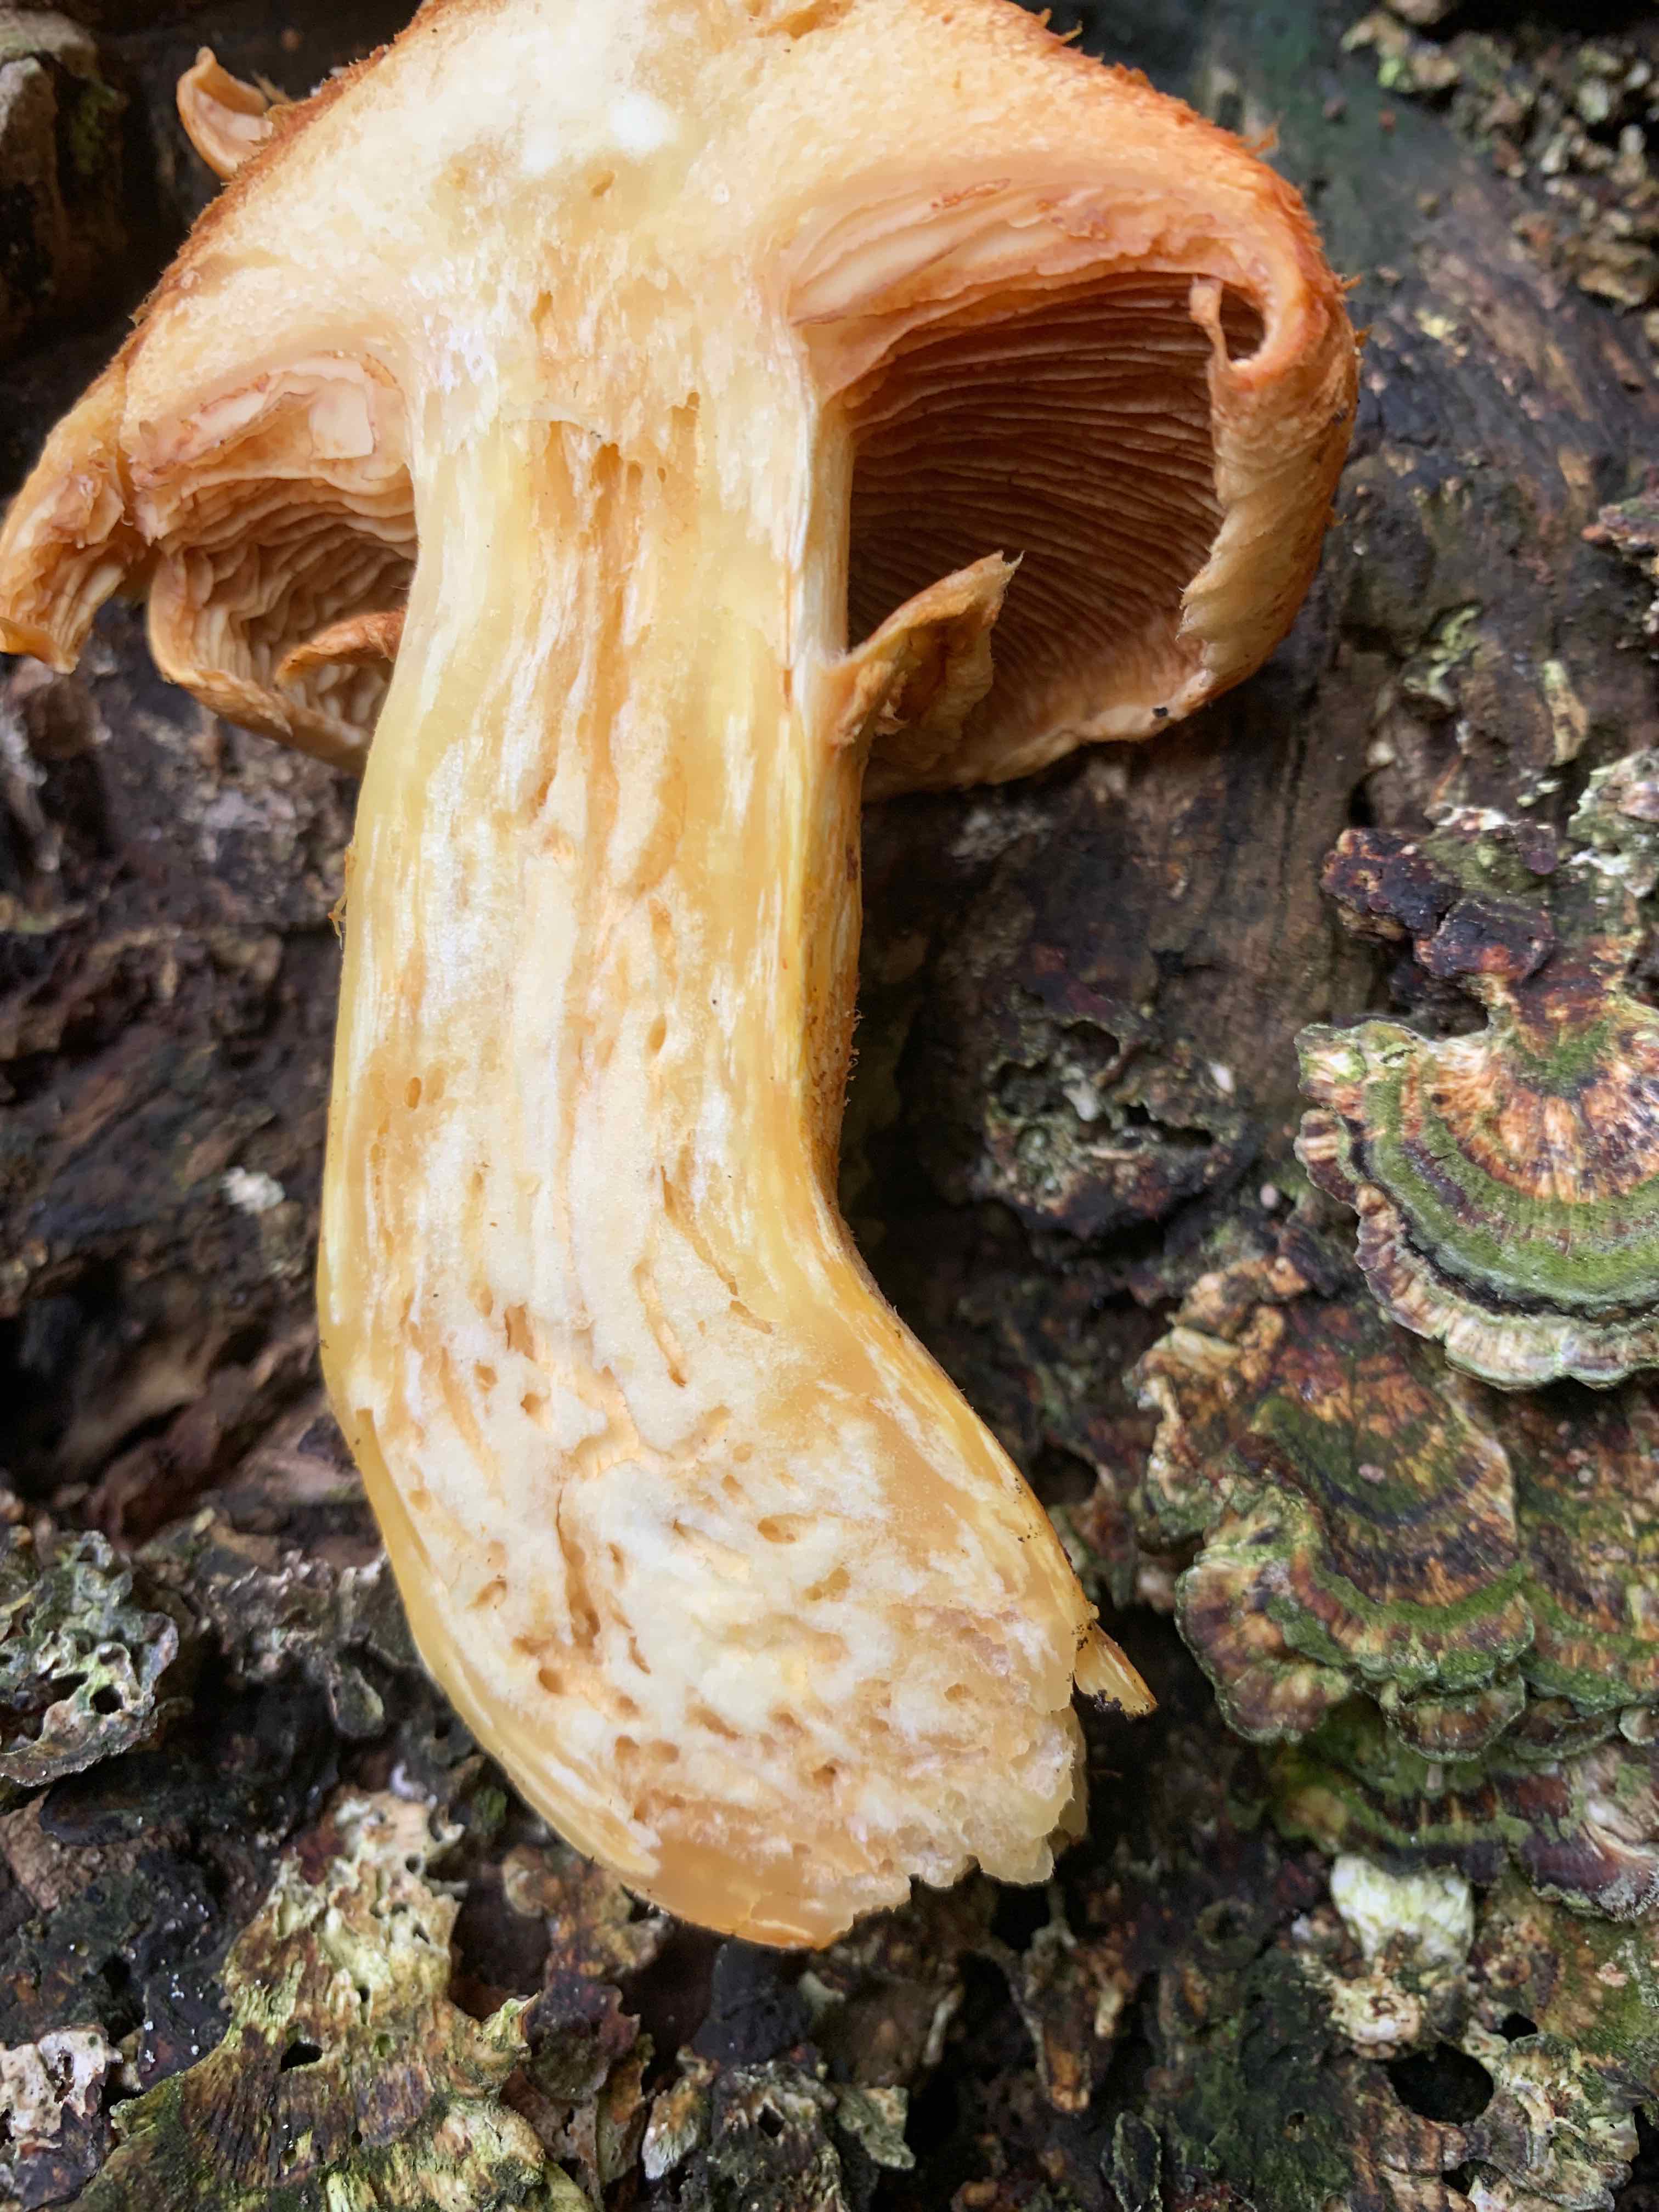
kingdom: Fungi
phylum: Basidiomycota
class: Agaricomycetes
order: Agaricales
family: Hymenogastraceae
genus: Gymnopilus
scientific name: Gymnopilus spectabilis
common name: fibret flammehat
